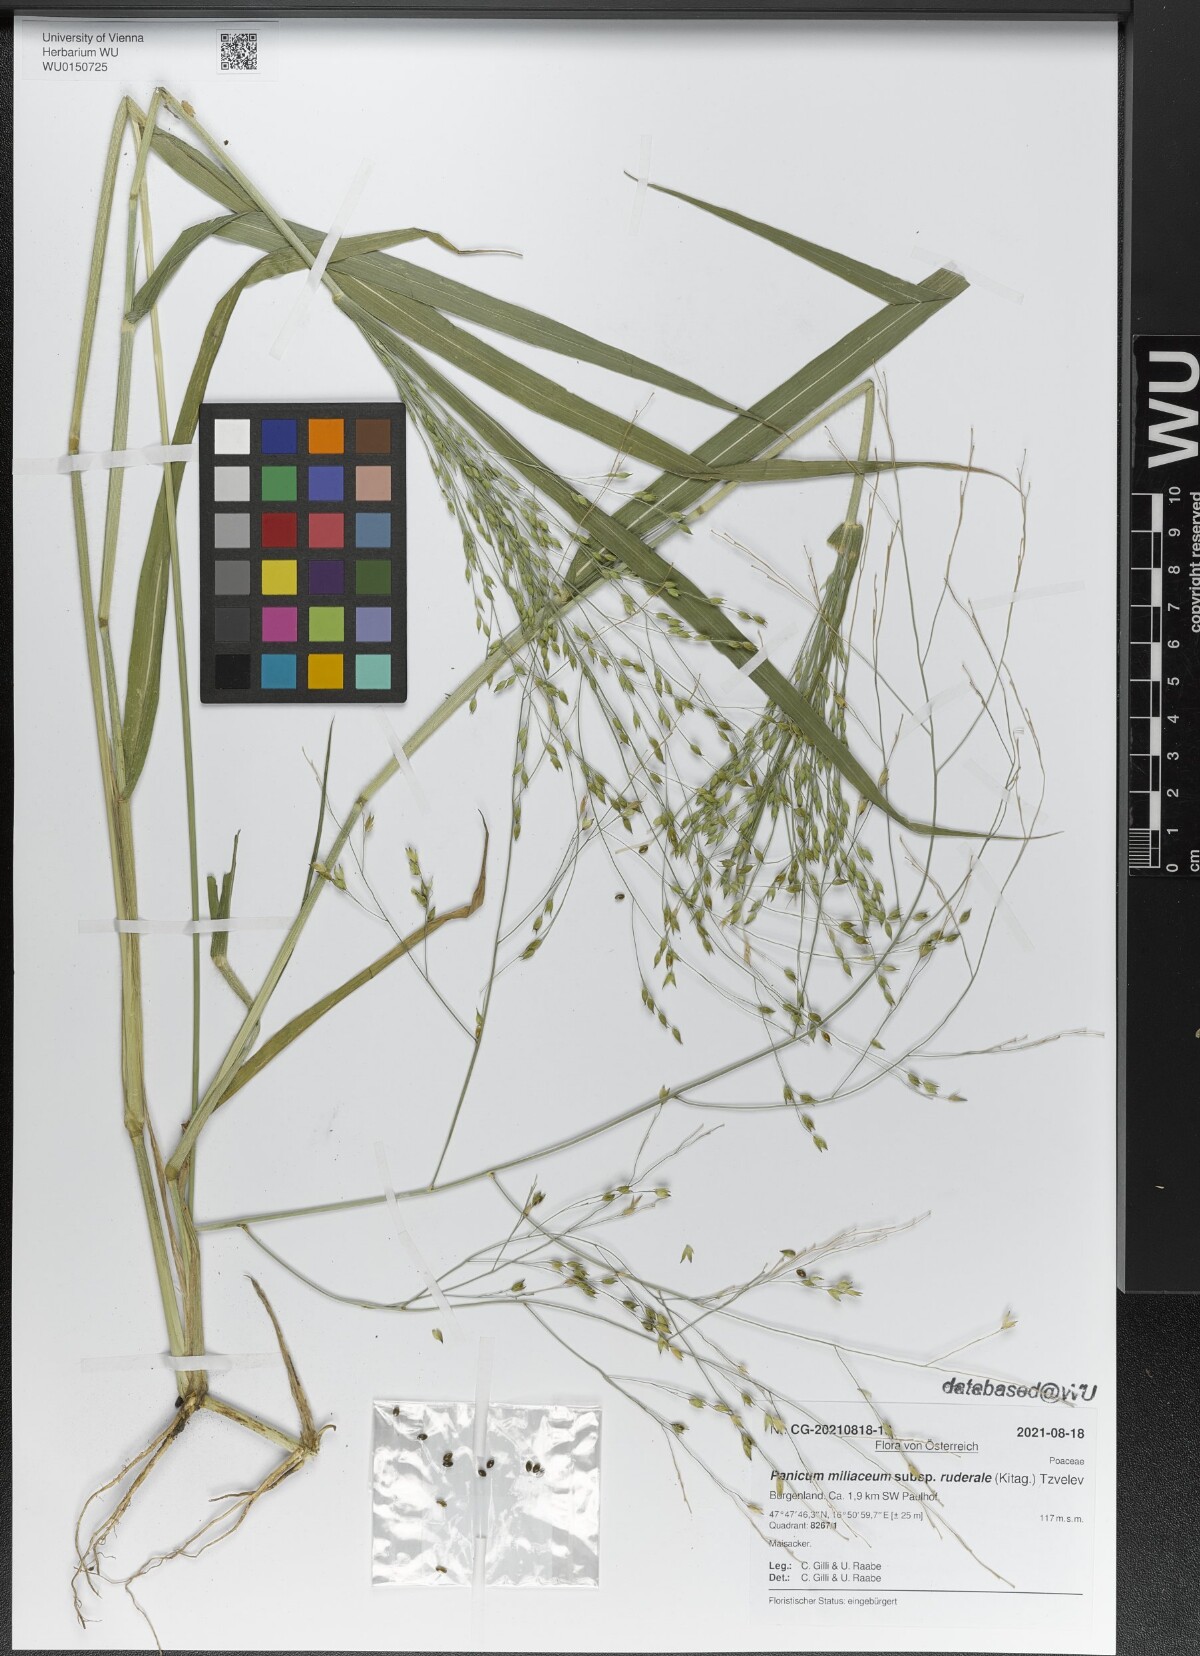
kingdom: Plantae
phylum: Tracheophyta
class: Liliopsida
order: Poales
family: Poaceae
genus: Panicum
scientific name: Panicum miliaceum
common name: Common millet
